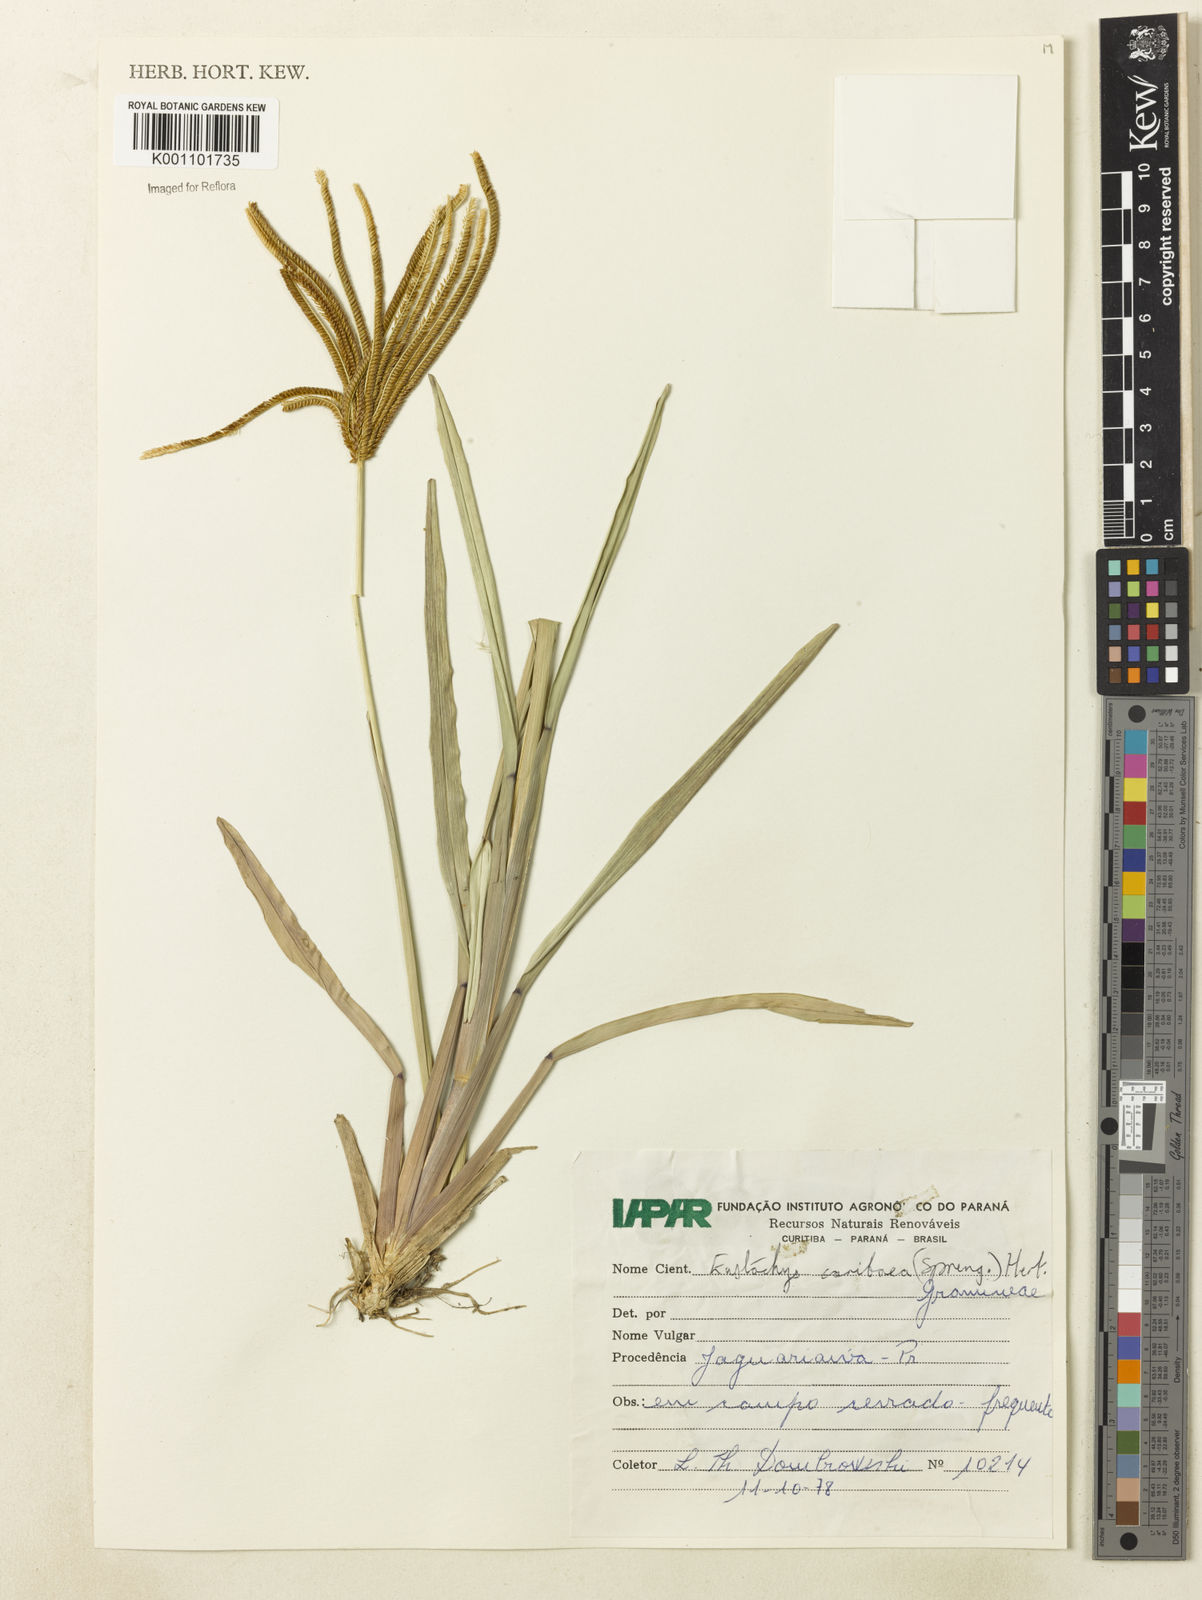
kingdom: Plantae
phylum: Tracheophyta
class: Liliopsida
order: Poales
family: Poaceae
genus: Eustachys
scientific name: Eustachys bahiensis
